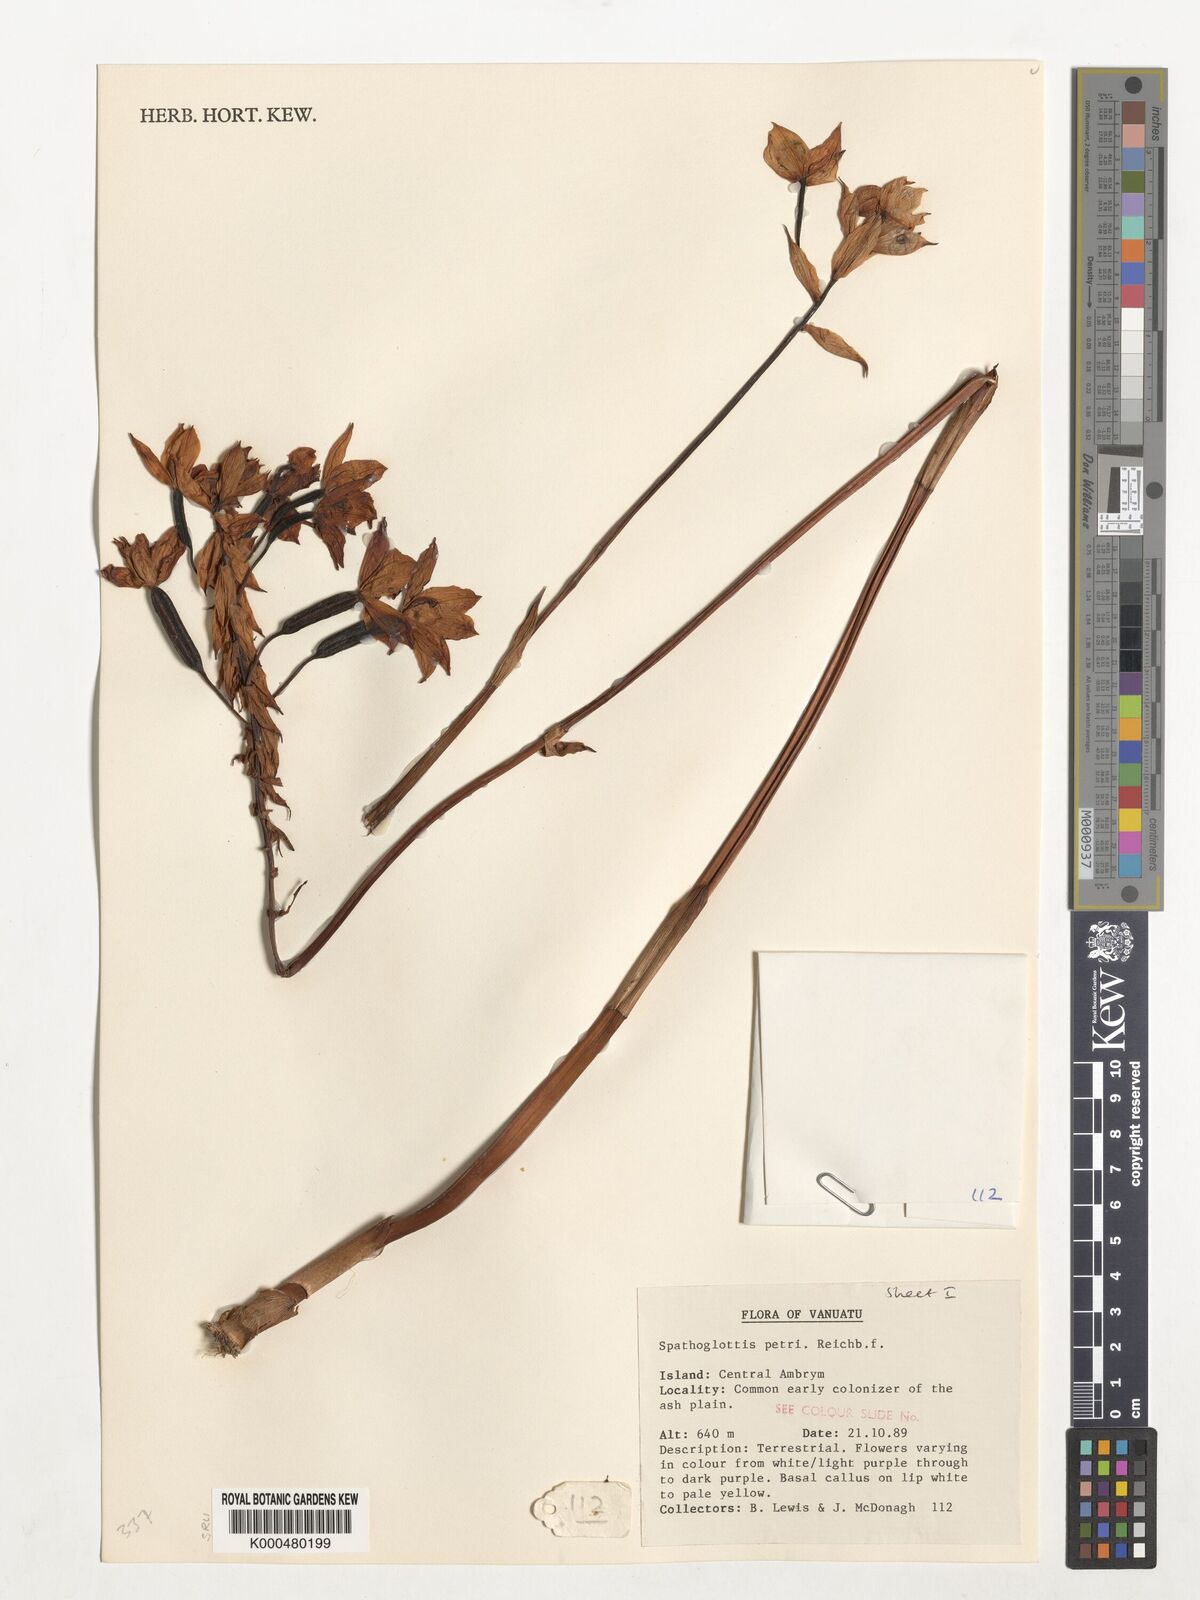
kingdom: Plantae
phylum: Tracheophyta
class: Liliopsida
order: Asparagales
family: Orchidaceae
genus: Spathoglottis
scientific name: Spathoglottis petri
